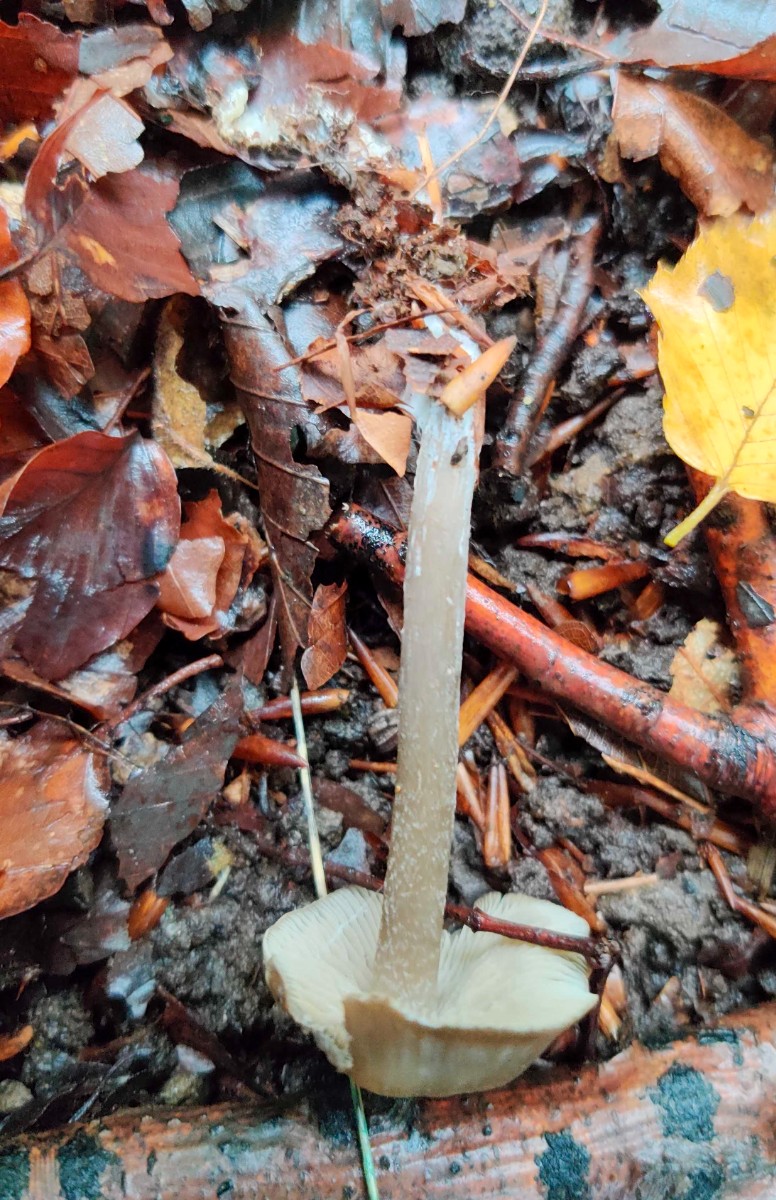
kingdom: Fungi
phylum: Basidiomycota
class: Agaricomycetes
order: Agaricales
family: Lyophyllaceae
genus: Tephrocybe
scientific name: Tephrocybe rancida
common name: mel-gråblad
